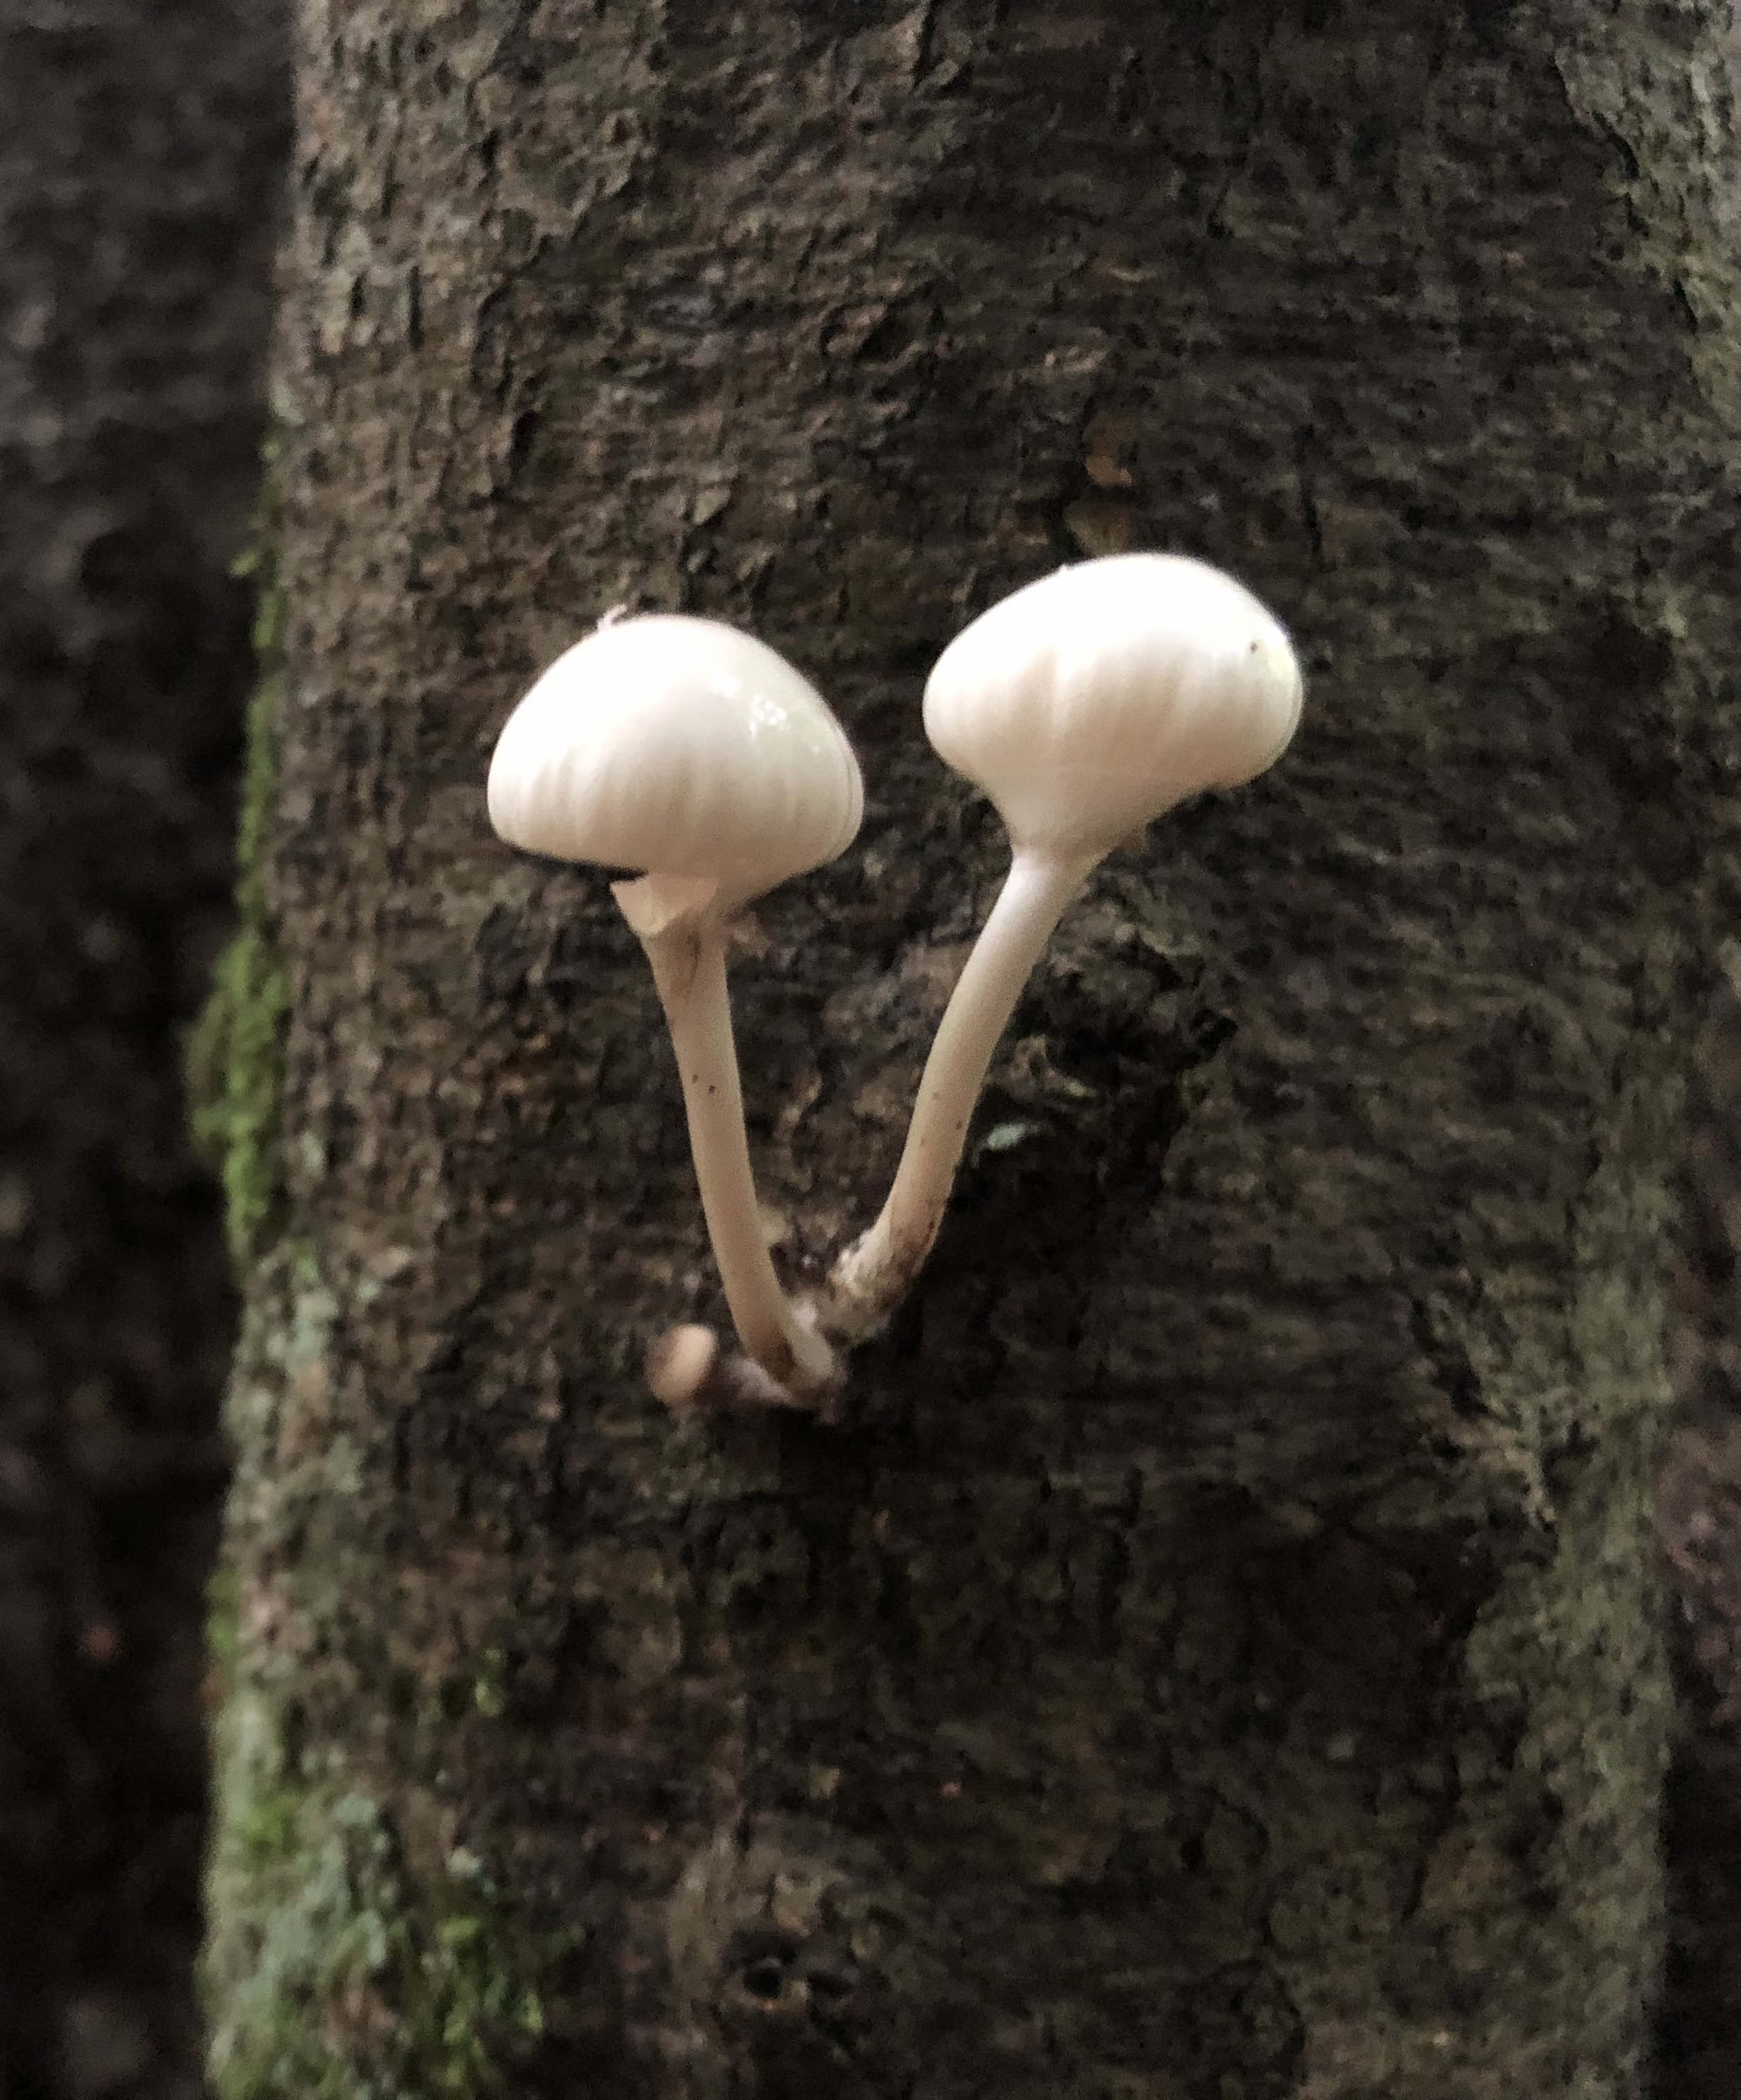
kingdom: Fungi
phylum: Basidiomycota
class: Agaricomycetes
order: Agaricales
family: Physalacriaceae
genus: Mucidula
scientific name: Mucidula mucida
